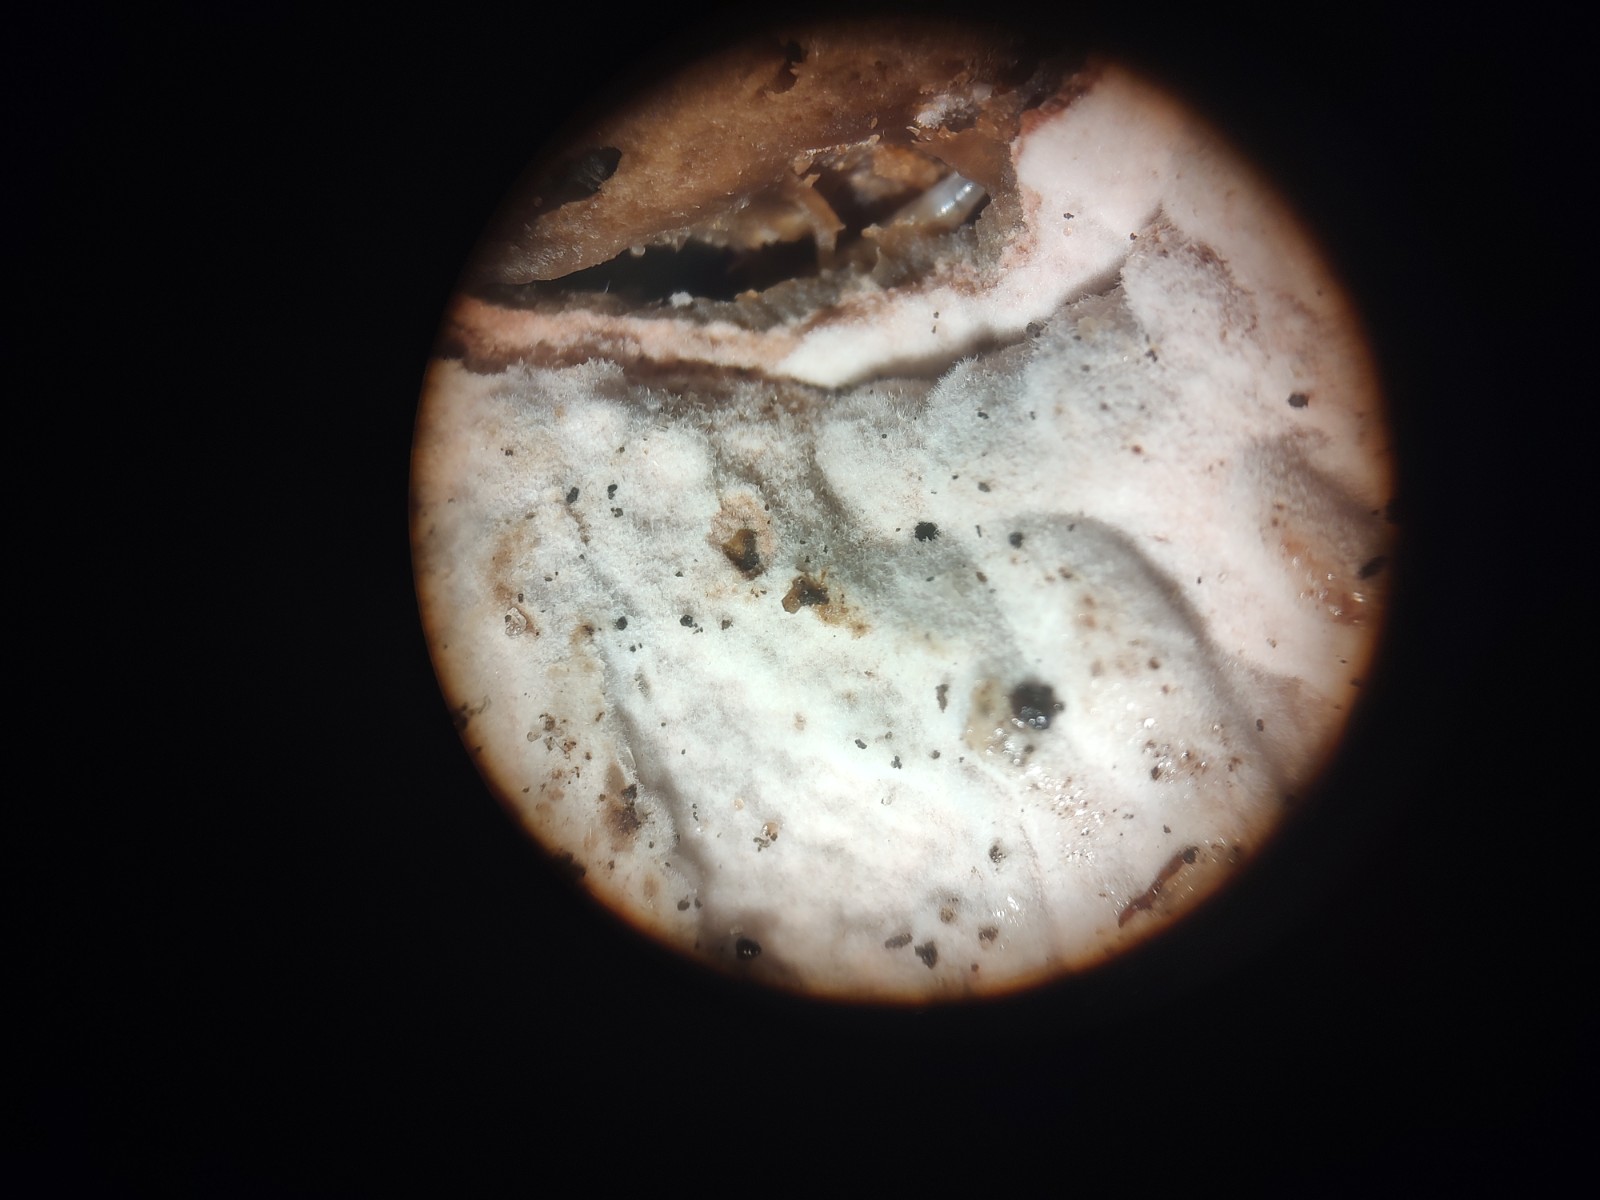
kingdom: Fungi
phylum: Ascomycota
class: Sordariomycetes
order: Hypocreales
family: Hypocreaceae
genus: Mycogone
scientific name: Mycogone rosea
